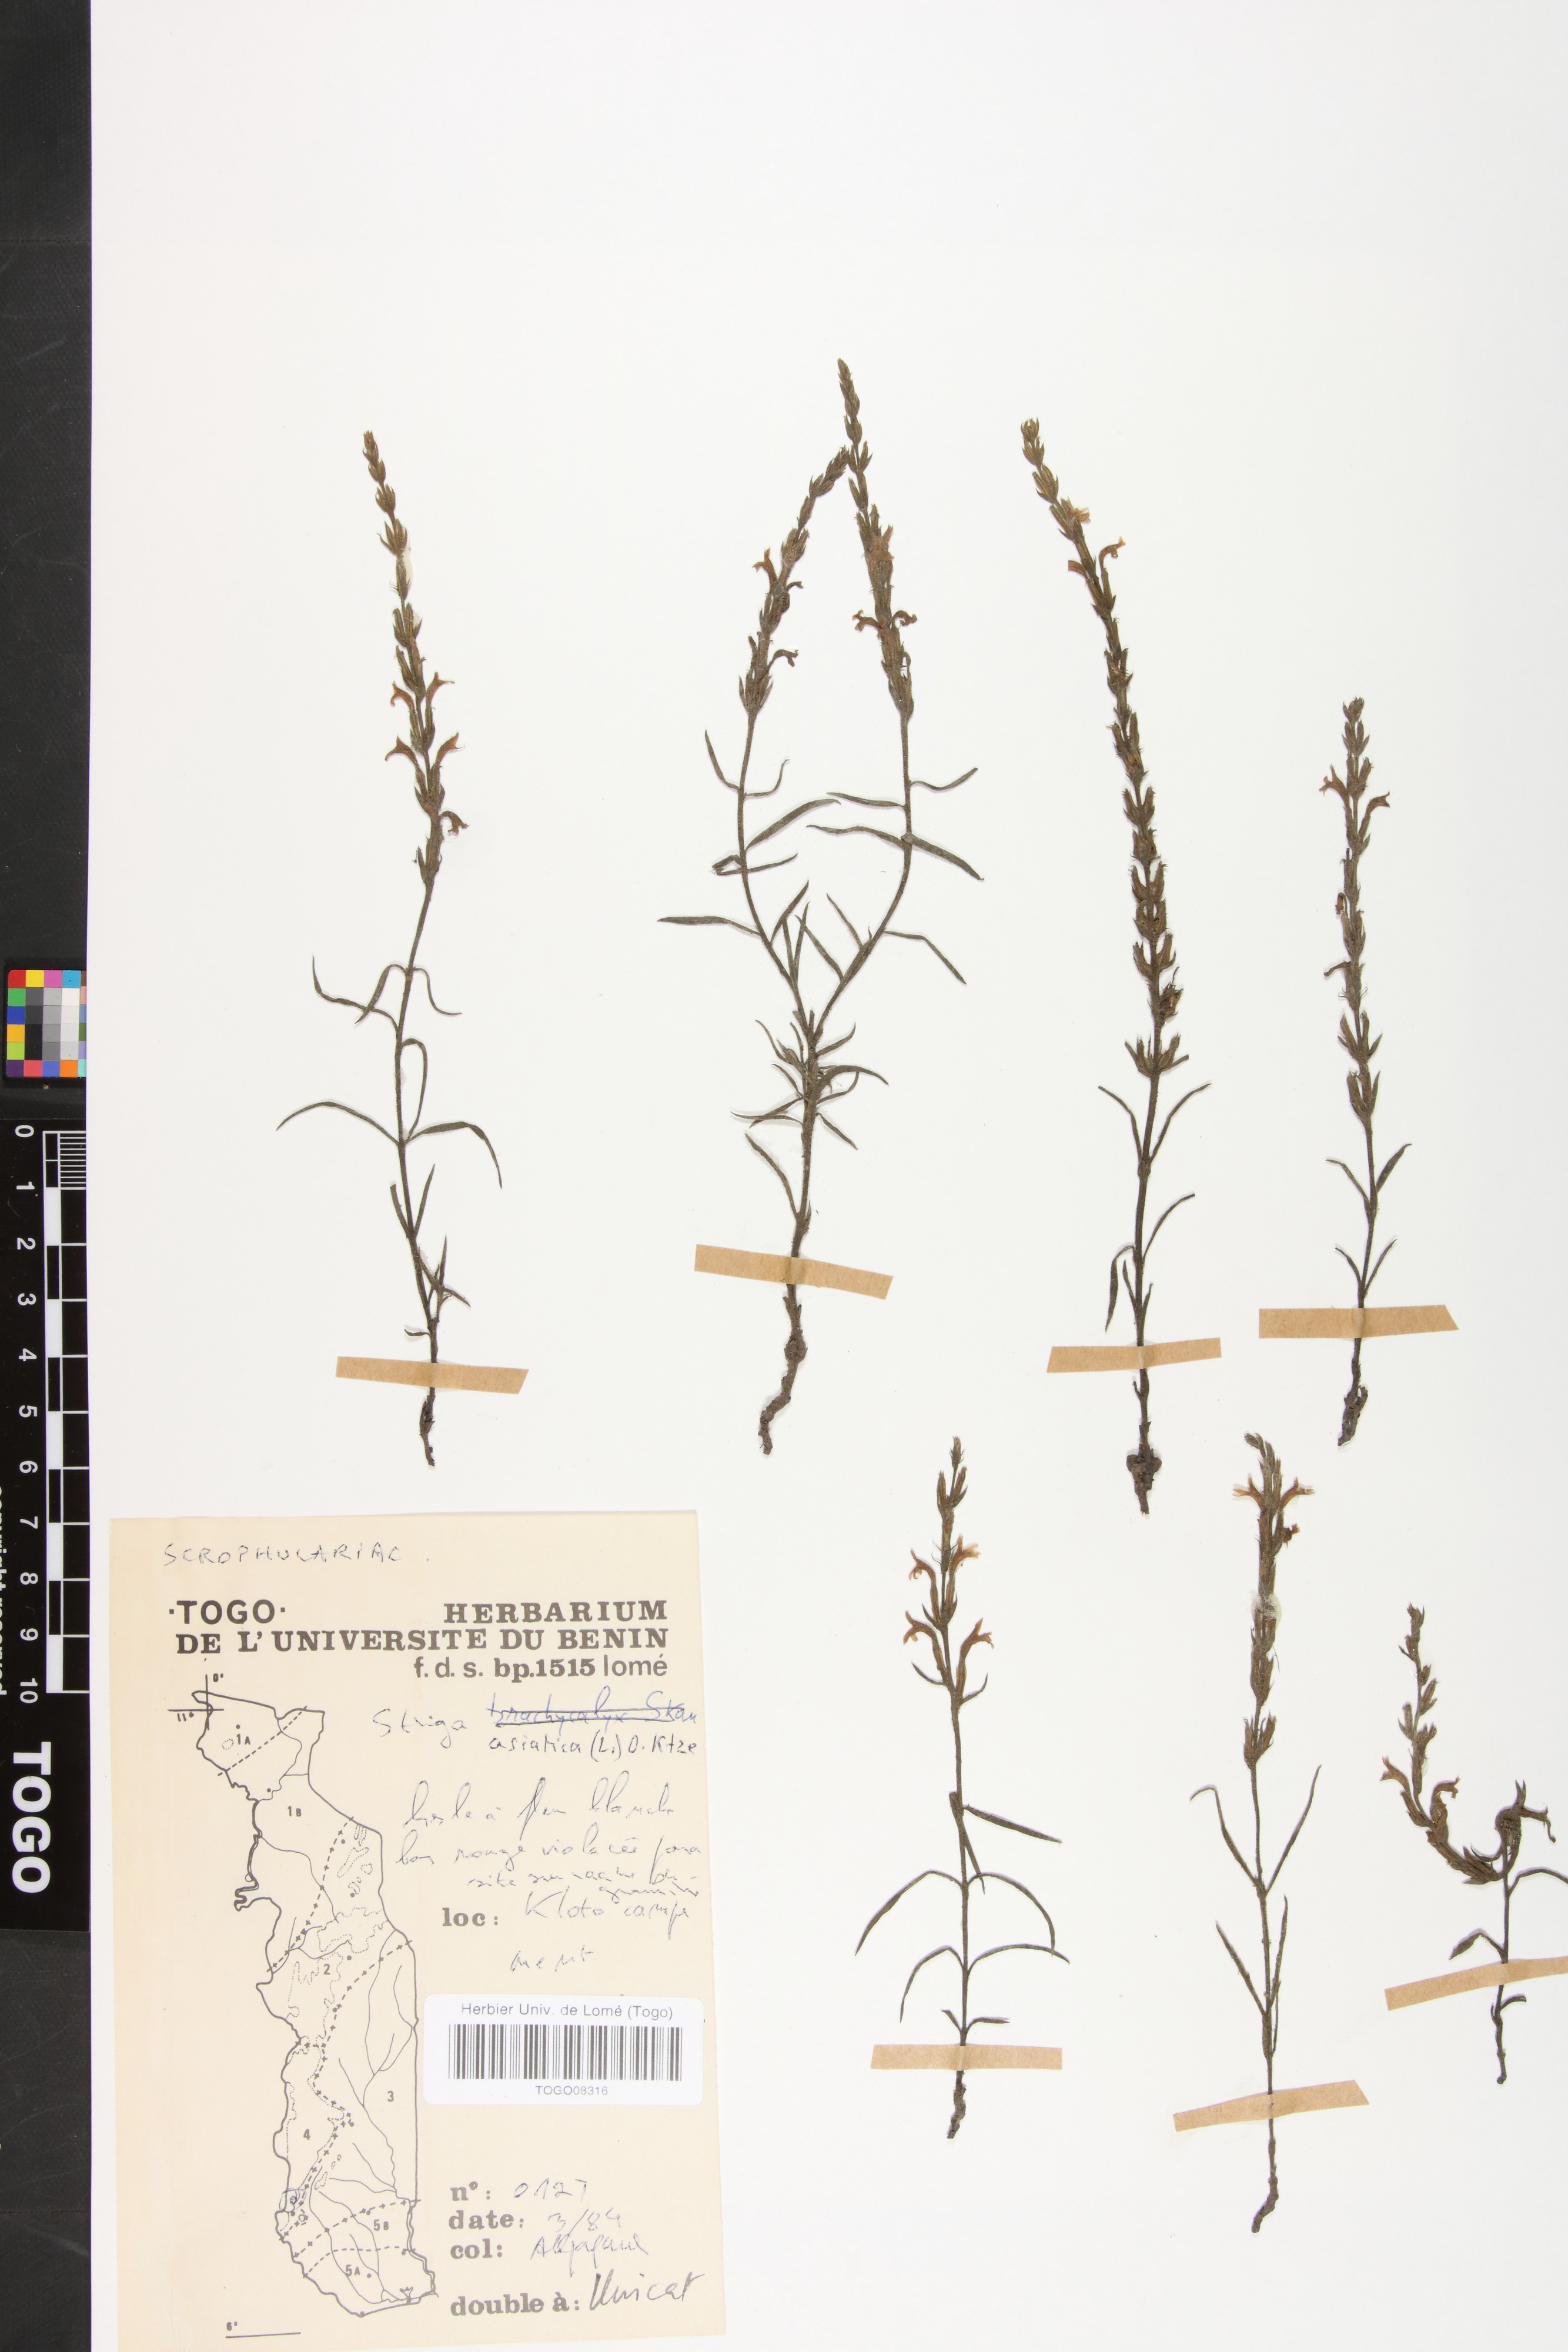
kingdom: Plantae
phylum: Tracheophyta
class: Magnoliopsida
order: Lamiales
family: Orobanchaceae
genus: Striga
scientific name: Striga asiatica
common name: Asiatic witchweed
